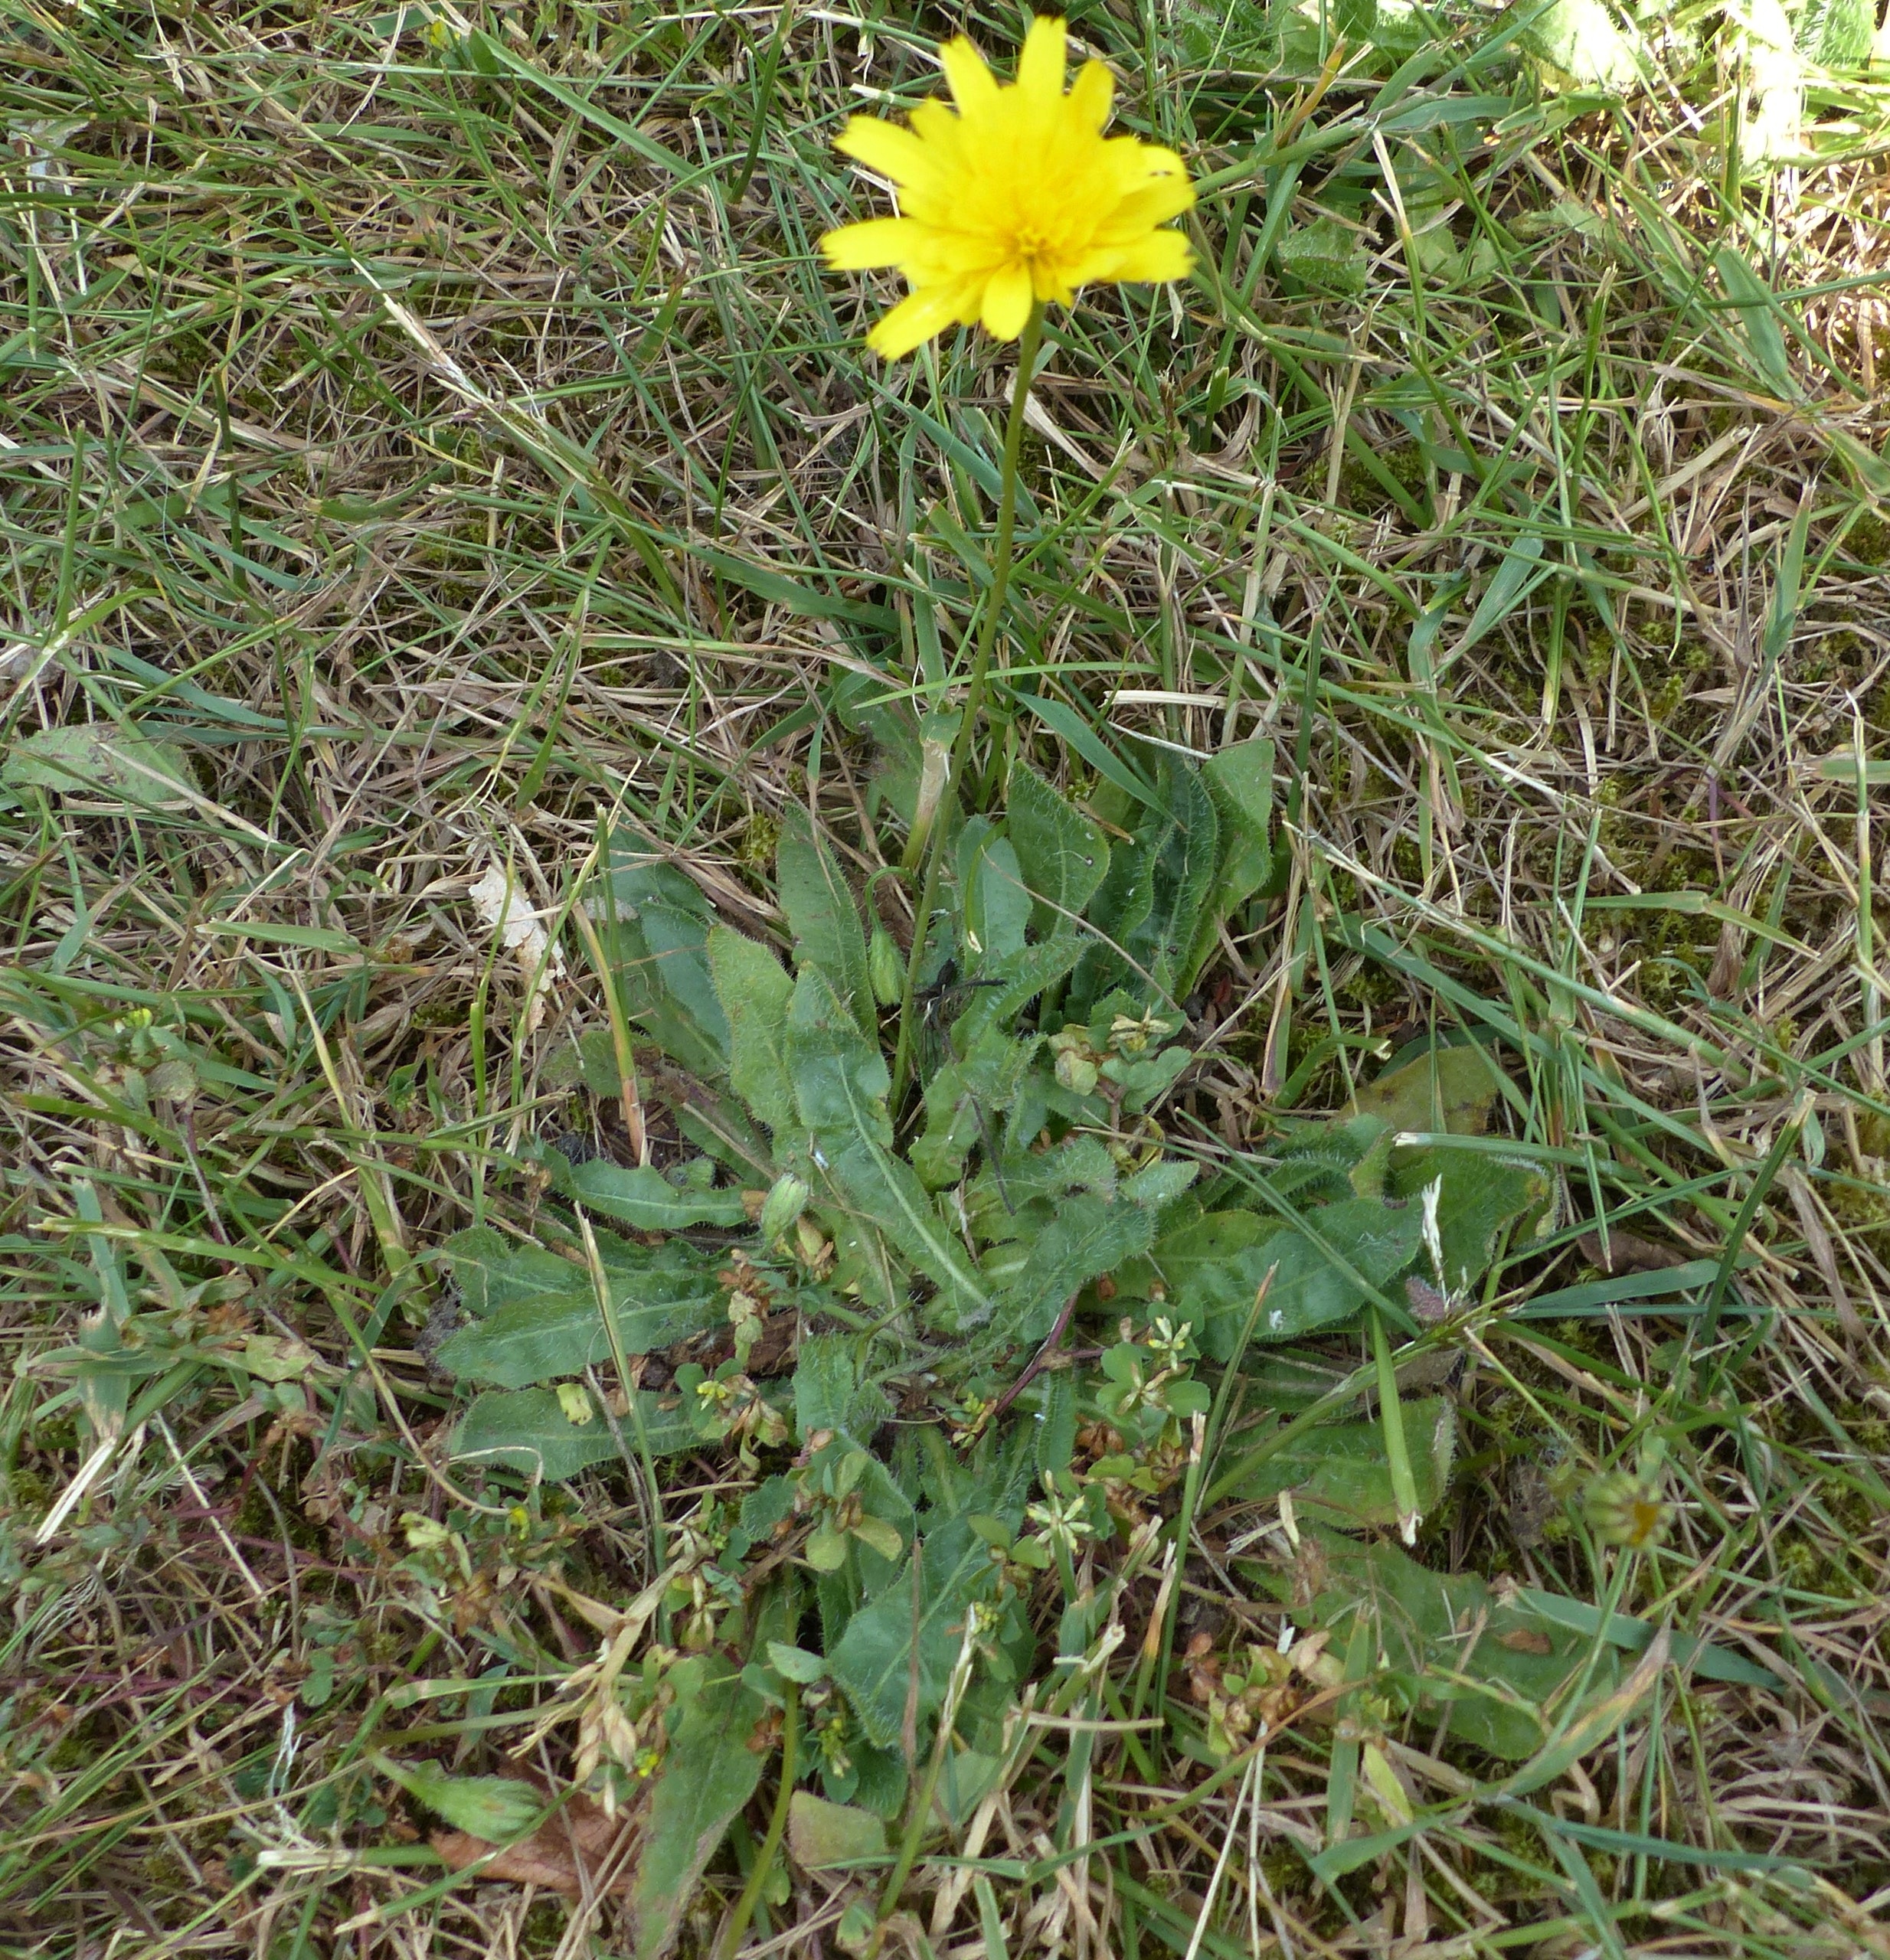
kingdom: Plantae
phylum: Tracheophyta
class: Magnoliopsida
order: Asterales
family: Asteraceae
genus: Thrincia
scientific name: Thrincia saxatilis
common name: Hundesalat
